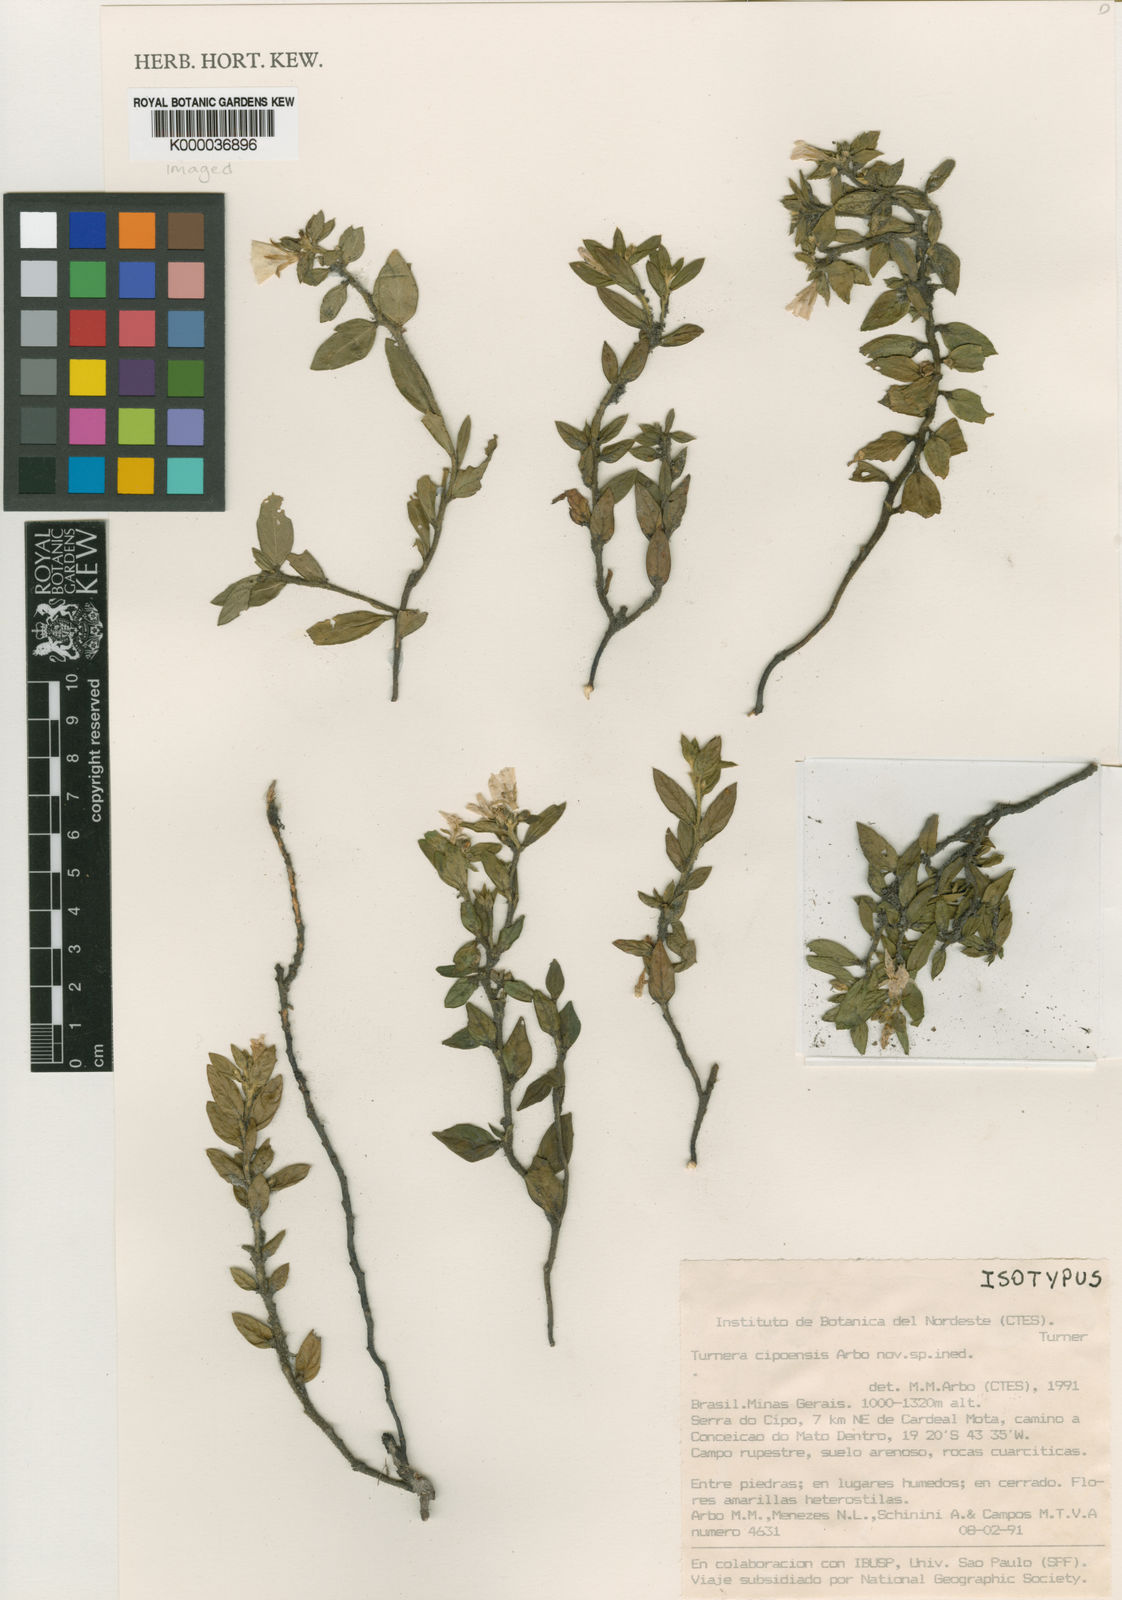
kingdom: Plantae
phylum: Tracheophyta
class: Magnoliopsida
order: Malpighiales
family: Turneraceae
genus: Turnera
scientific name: Turnera cipoensis
